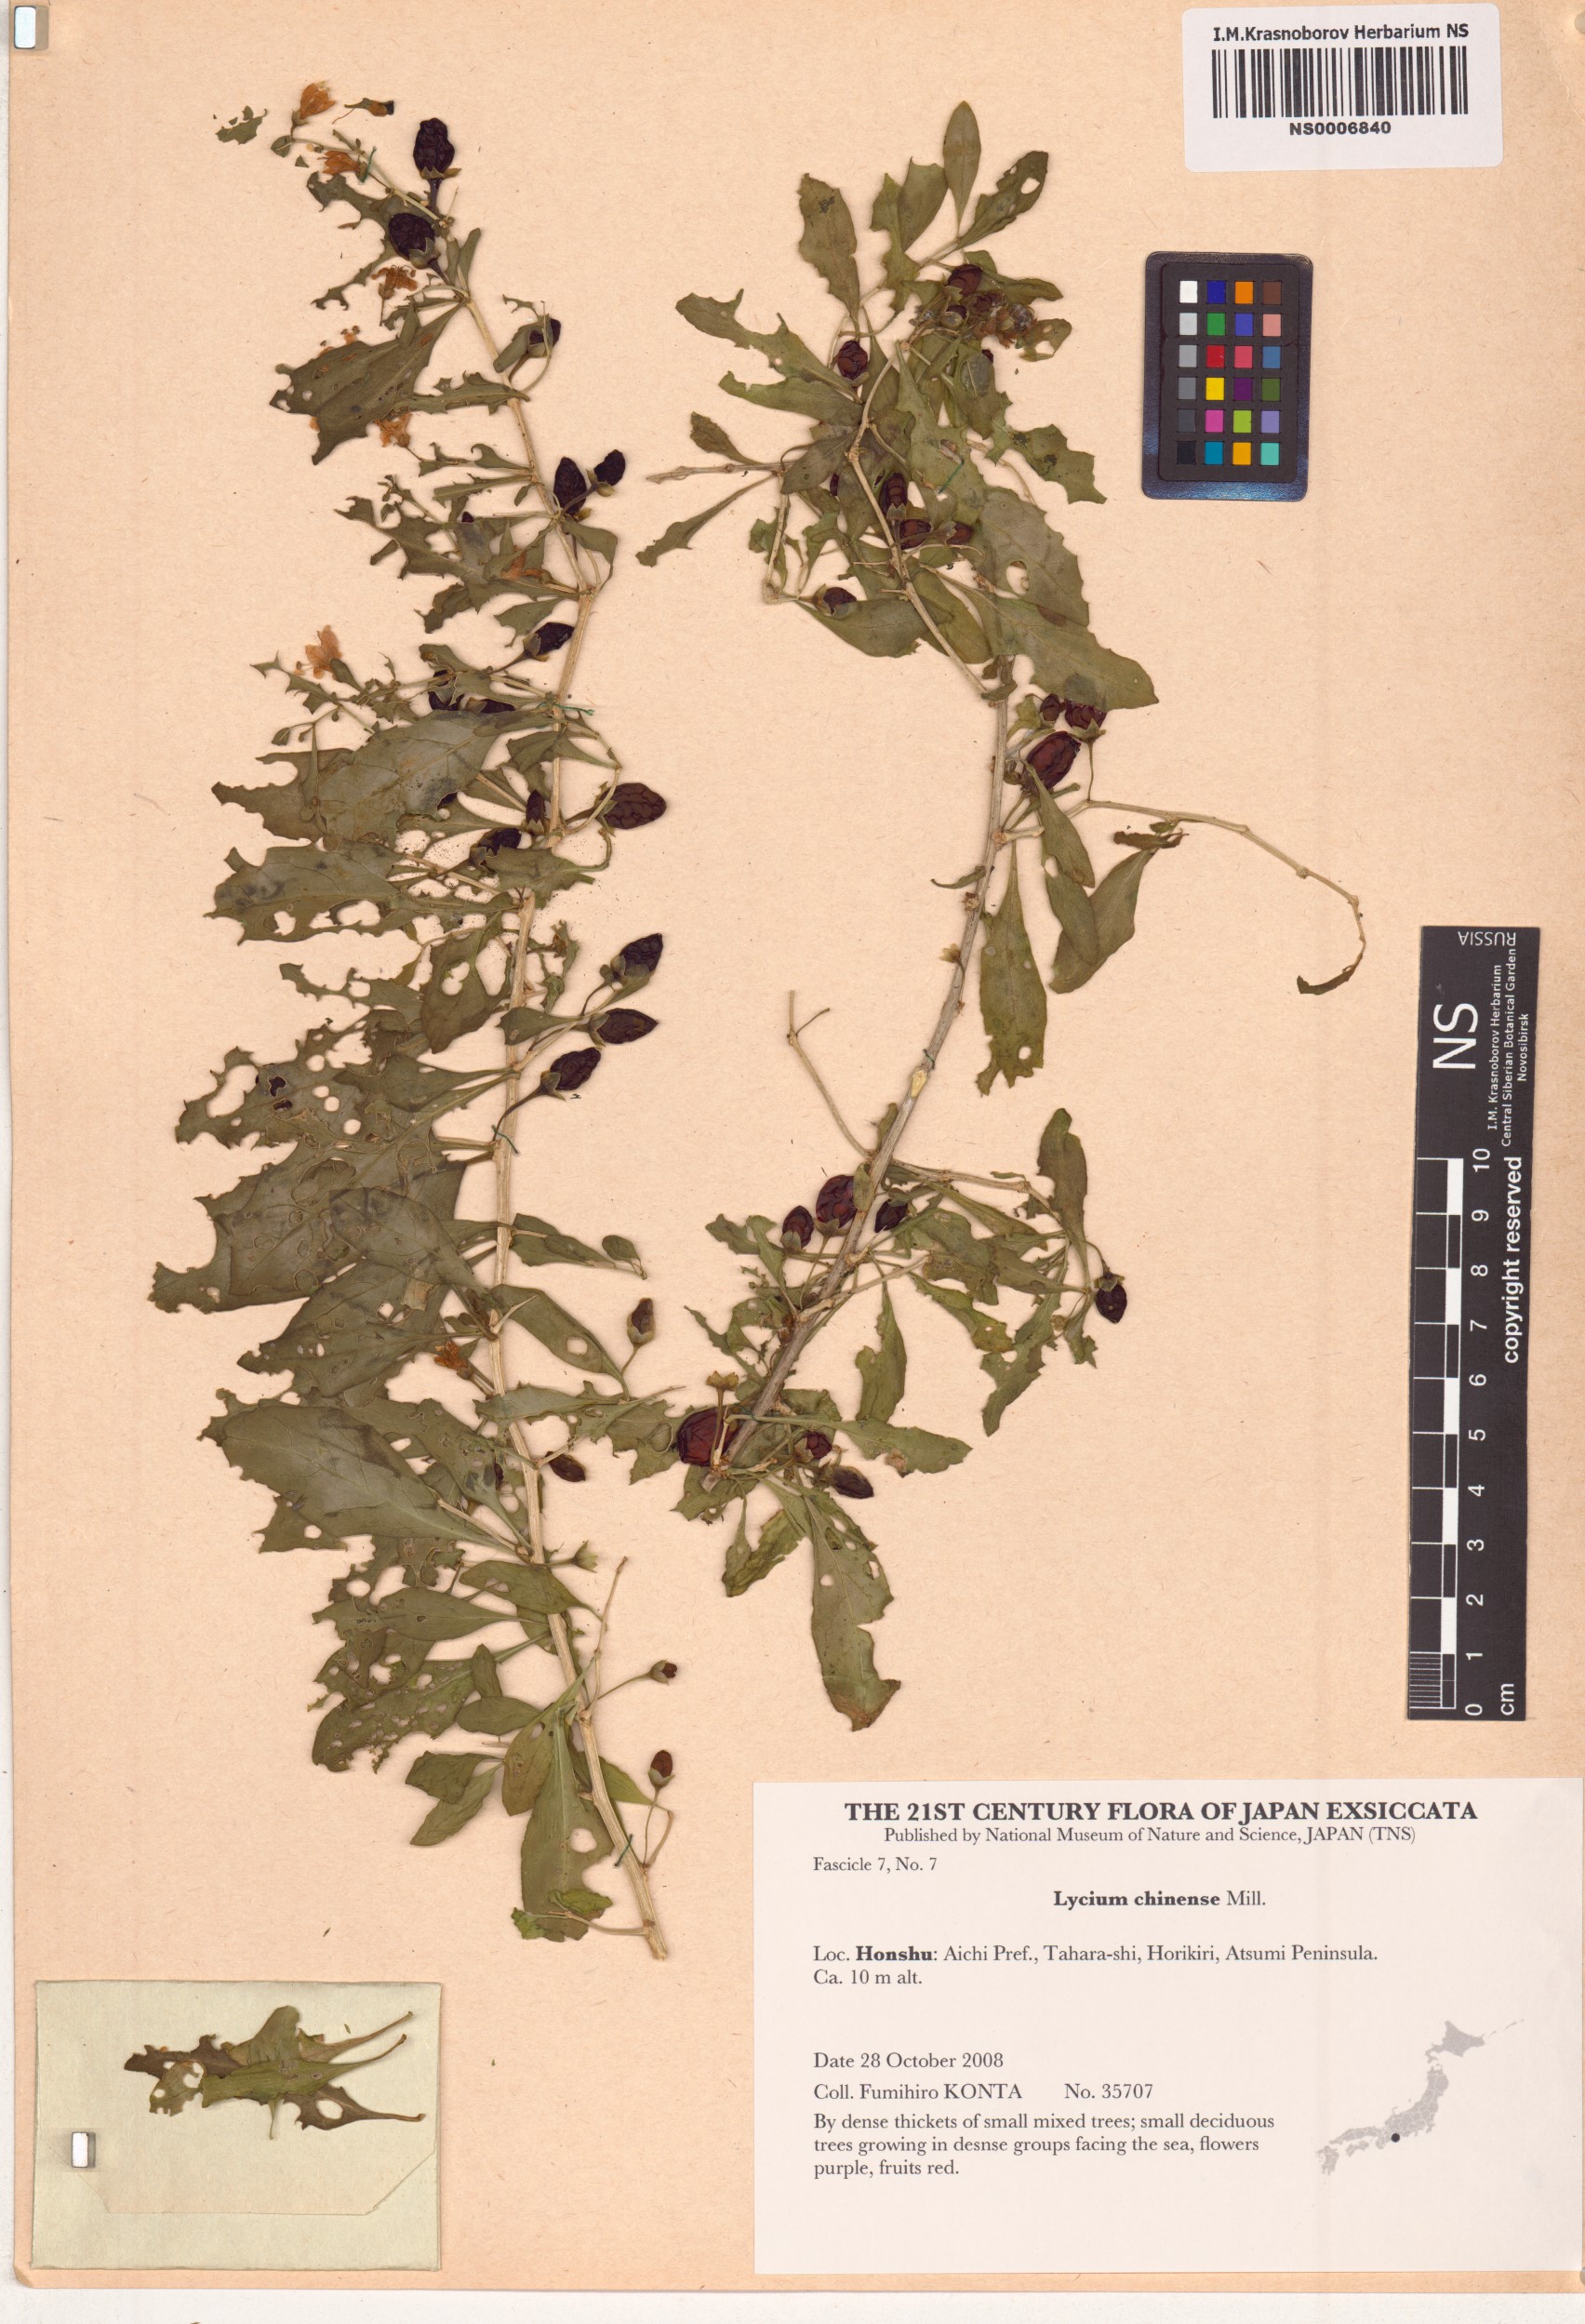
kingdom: Plantae
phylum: Tracheophyta
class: Magnoliopsida
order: Solanales
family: Solanaceae
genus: Lycium
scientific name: Lycium chinense
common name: Chinese teaplant
